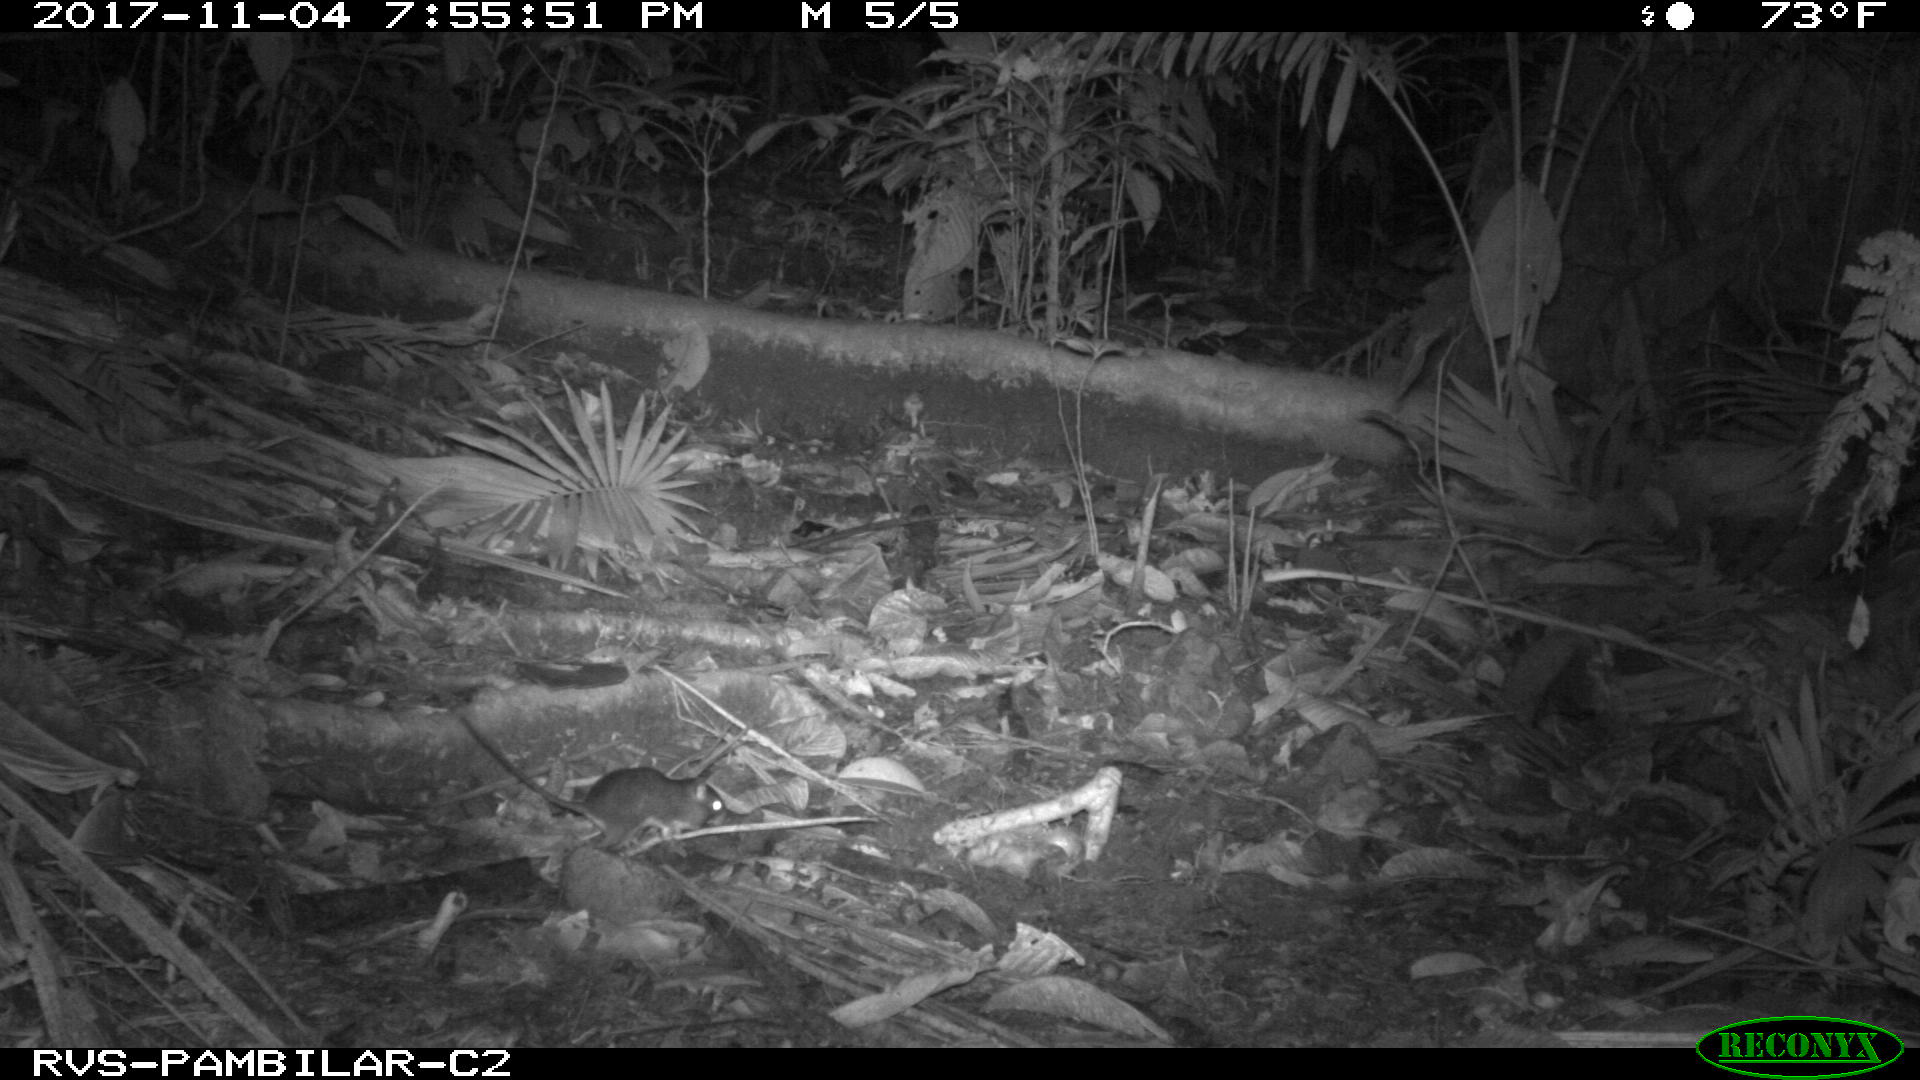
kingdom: Animalia
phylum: Chordata
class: Mammalia
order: Rodentia
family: Echimyidae
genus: Proechimys
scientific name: Proechimys
